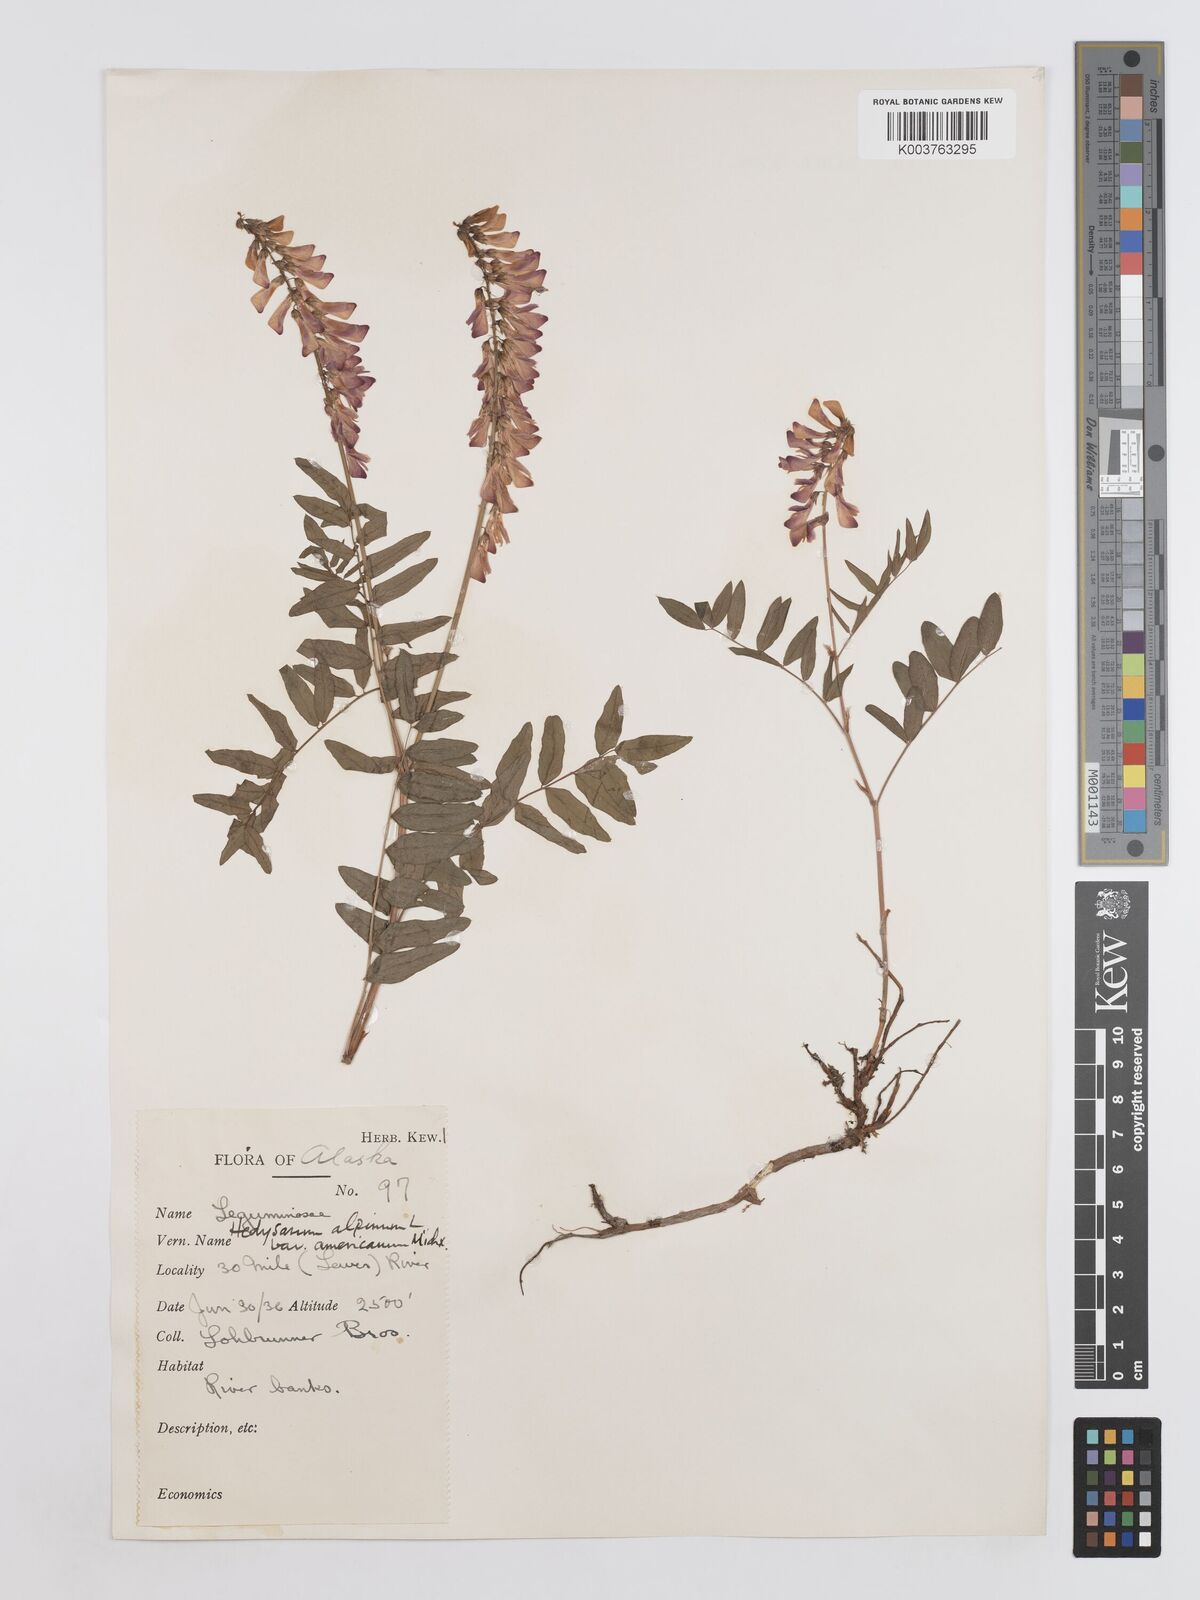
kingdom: Plantae
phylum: Tracheophyta
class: Magnoliopsida
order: Fabales
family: Fabaceae
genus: Hedysarum
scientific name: Hedysarum alpinum
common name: Alpine sweet-vetch
